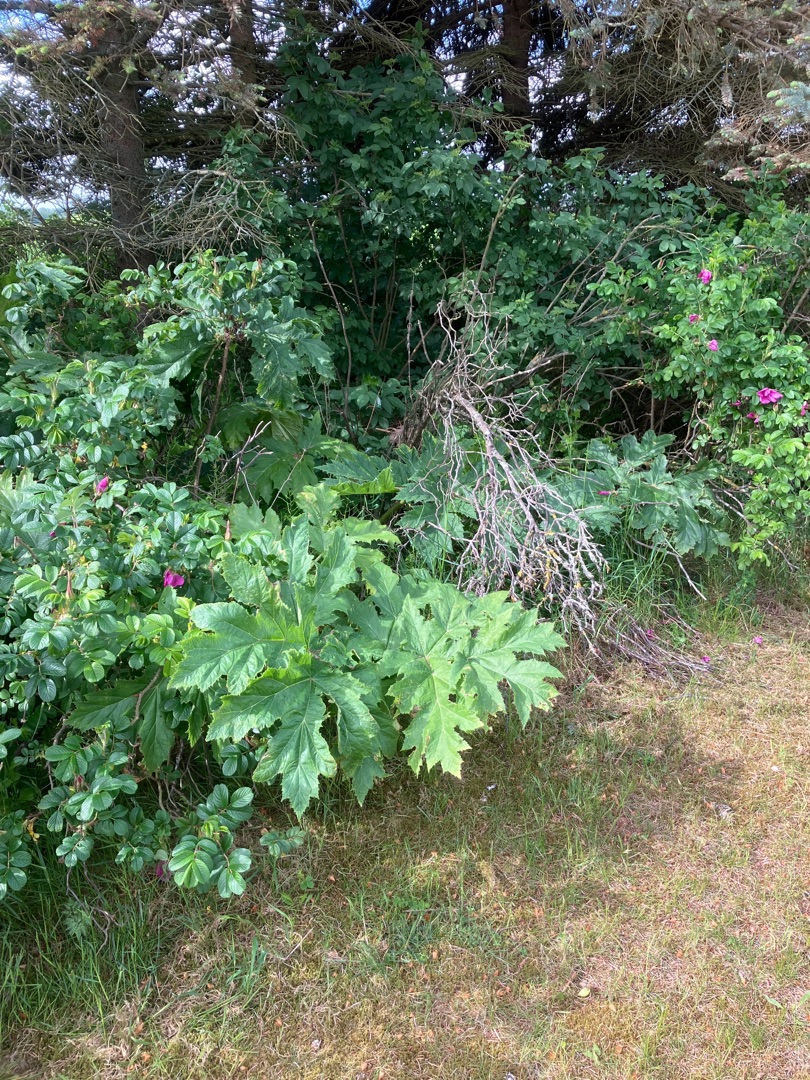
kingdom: Plantae
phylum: Tracheophyta
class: Magnoliopsida
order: Apiales
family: Apiaceae
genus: Heracleum
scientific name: Heracleum mantegazzianum
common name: Kæmpe-bjørneklo
